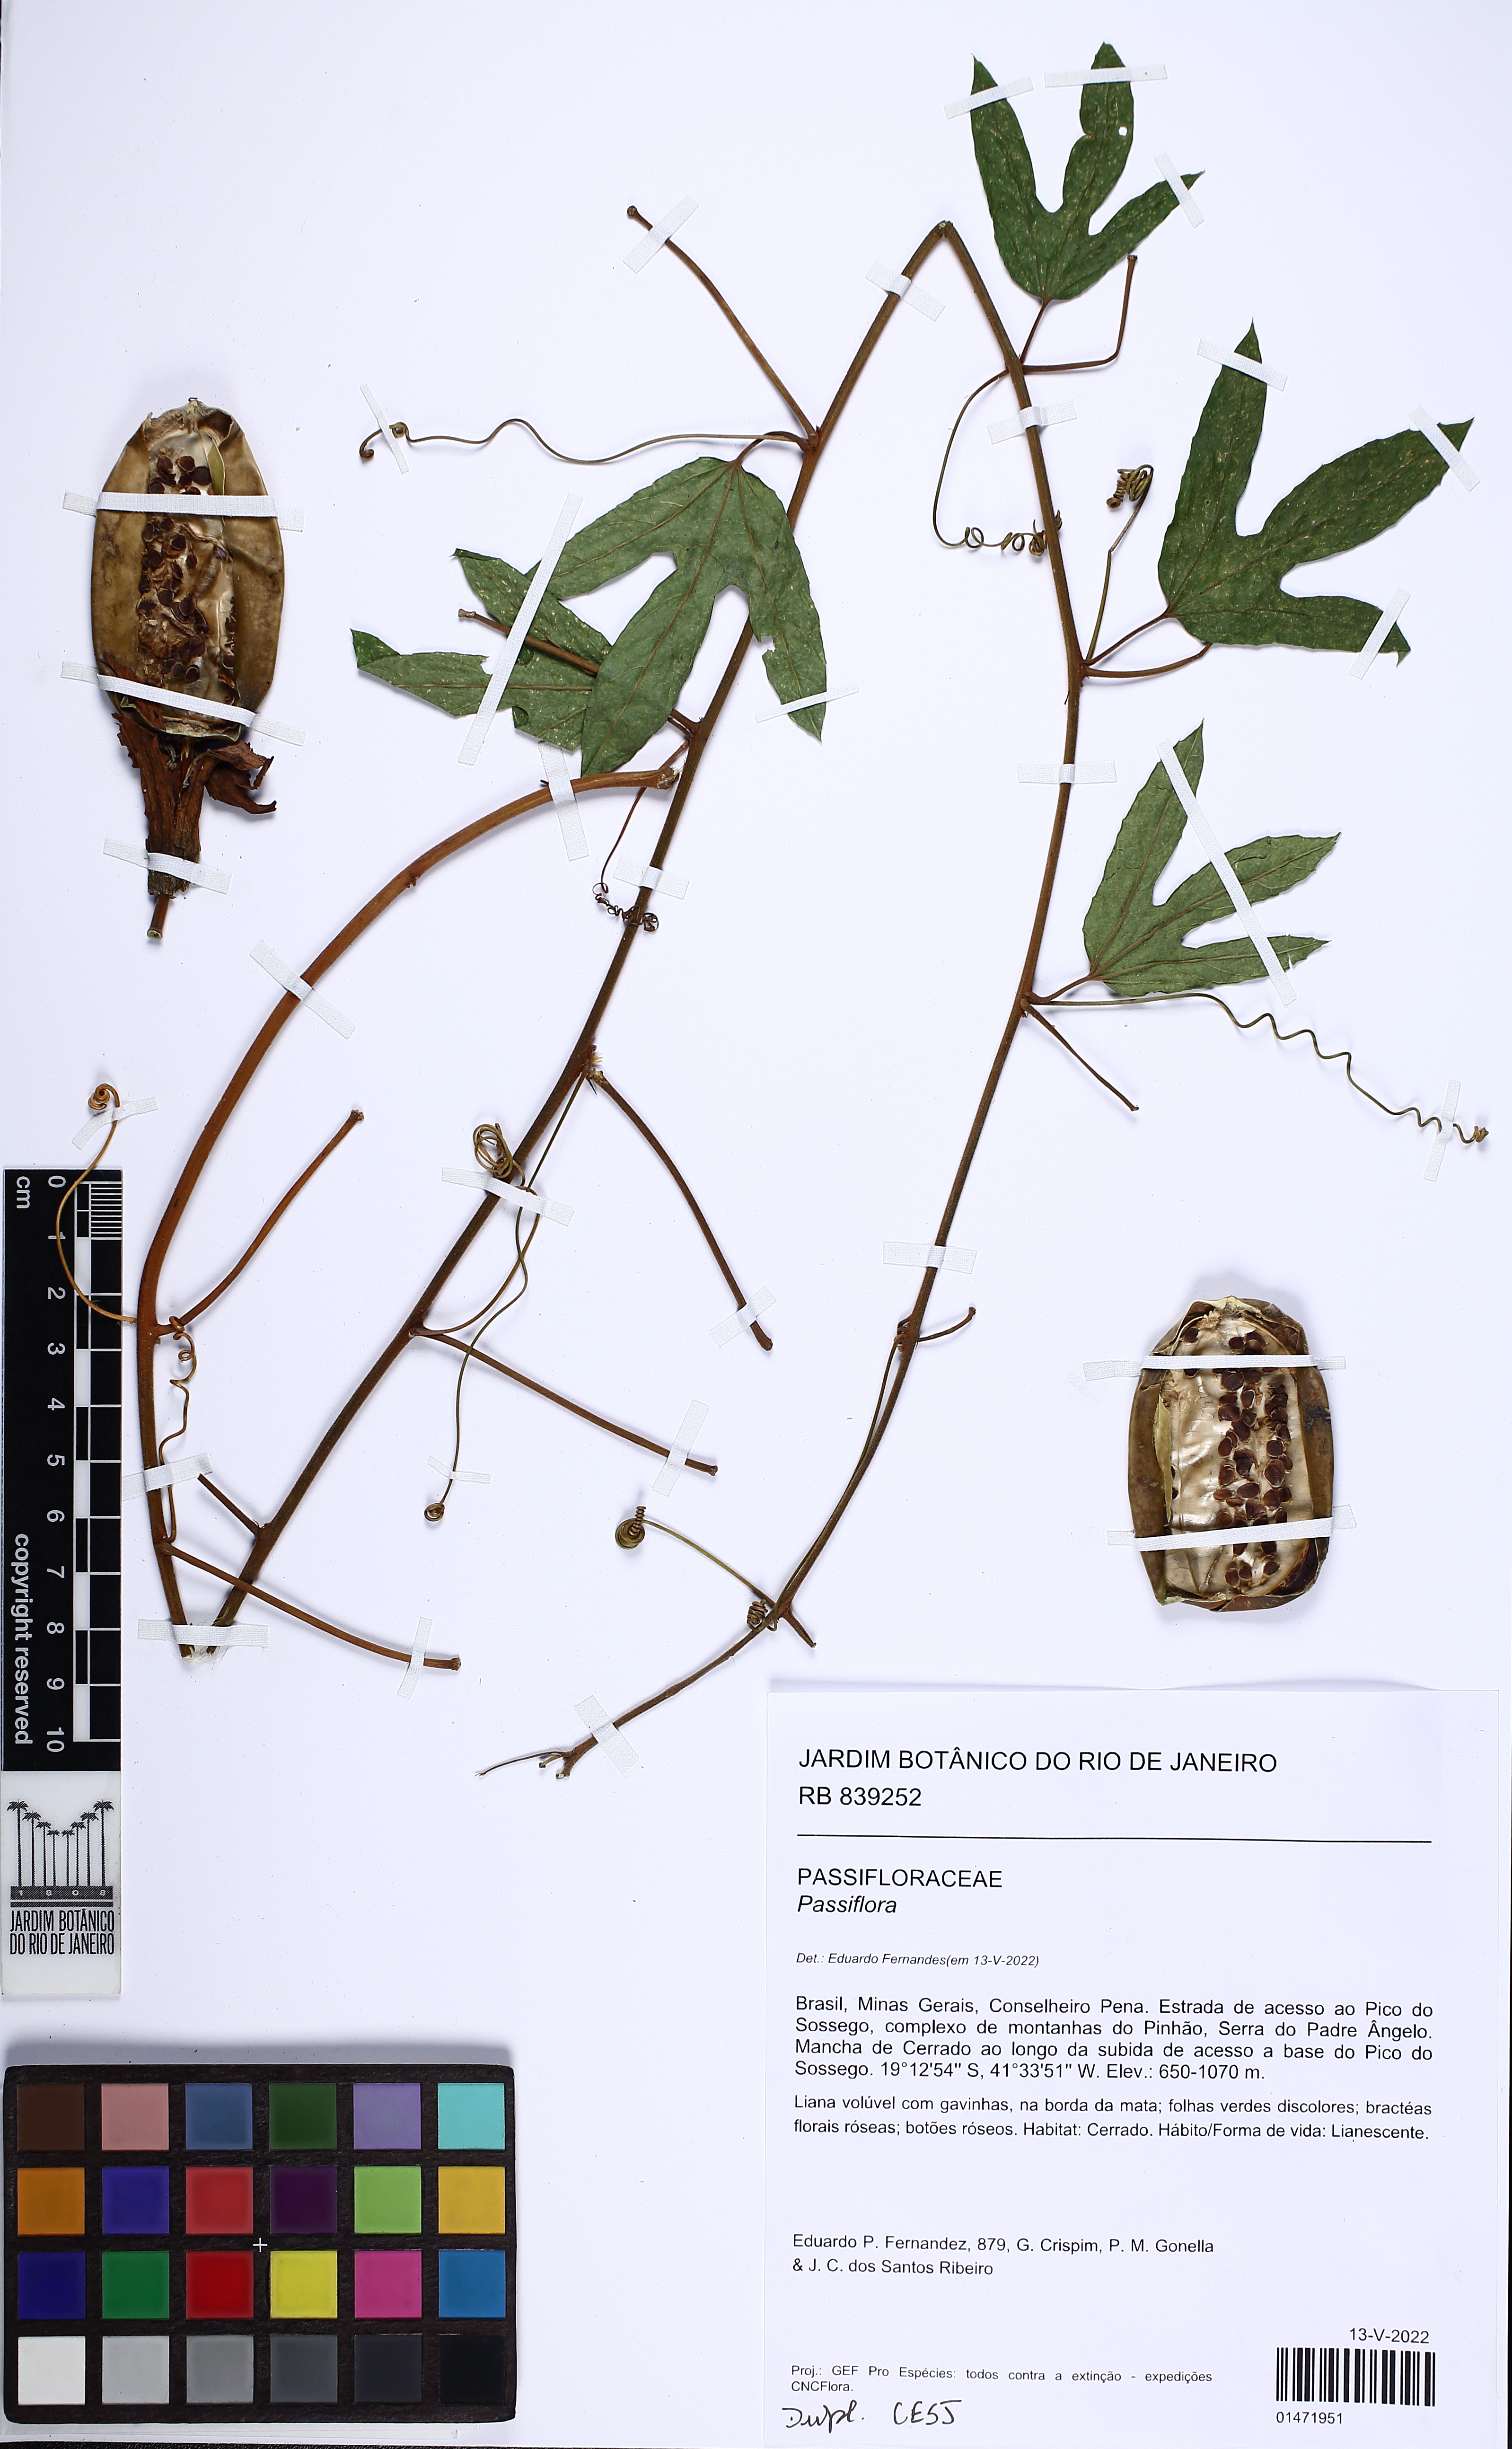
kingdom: Plantae
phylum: Tracheophyta
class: Magnoliopsida
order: Malpighiales
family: Passifloraceae
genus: Passiflora
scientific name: Passiflora speciosa
